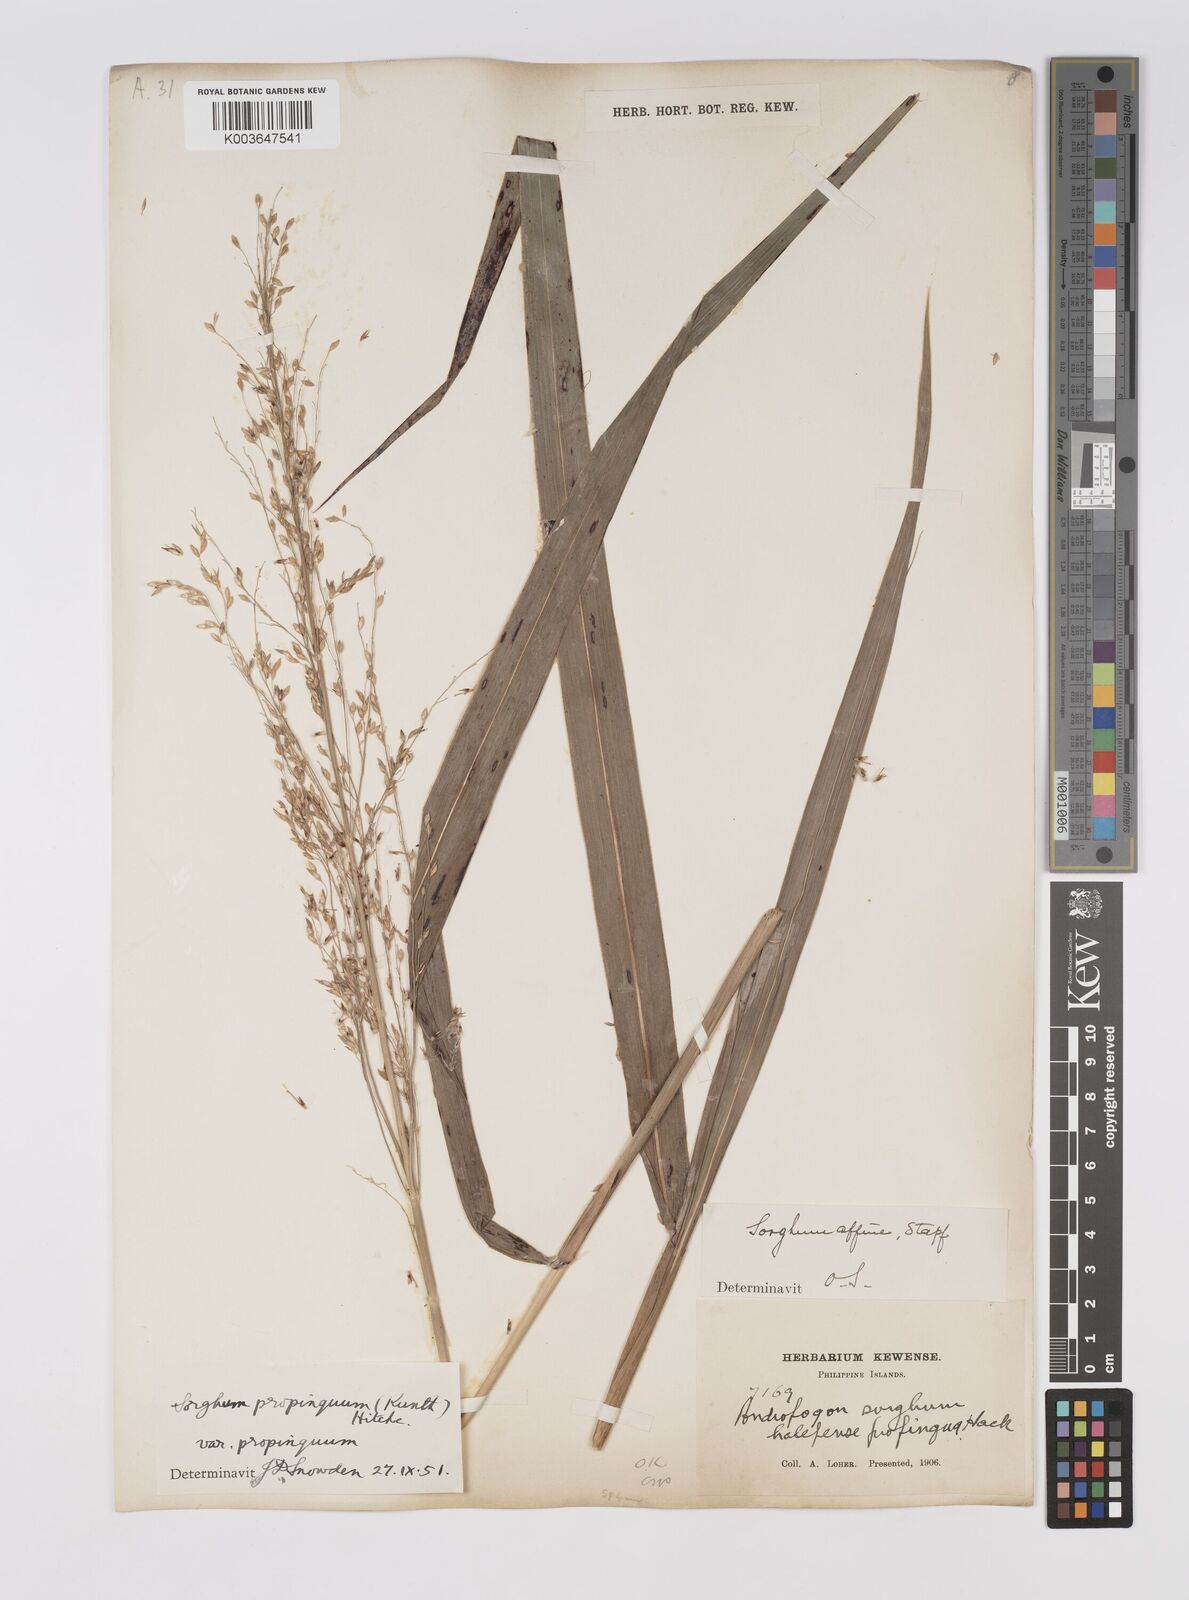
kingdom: Plantae
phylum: Tracheophyta
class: Liliopsida
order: Poales
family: Poaceae
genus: Sorghum
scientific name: Sorghum propinquum
